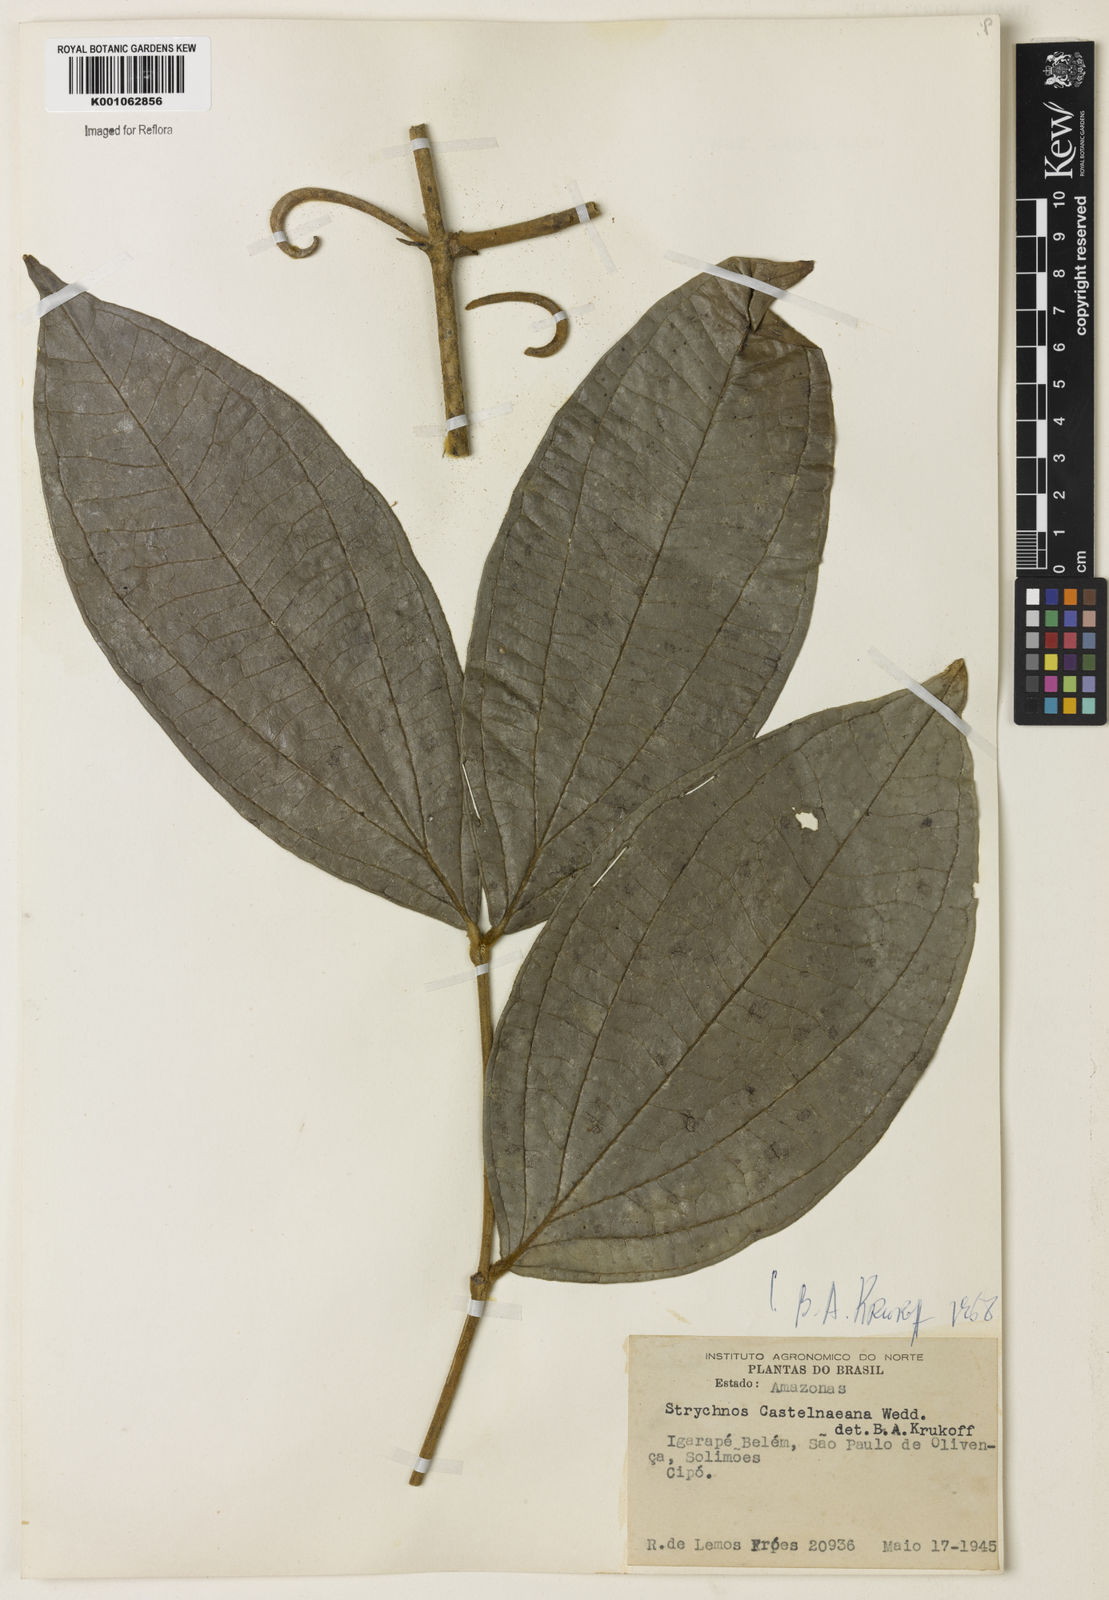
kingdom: Plantae
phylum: Tracheophyta
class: Magnoliopsida
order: Gentianales
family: Loganiaceae
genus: Strychnos
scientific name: Strychnos
